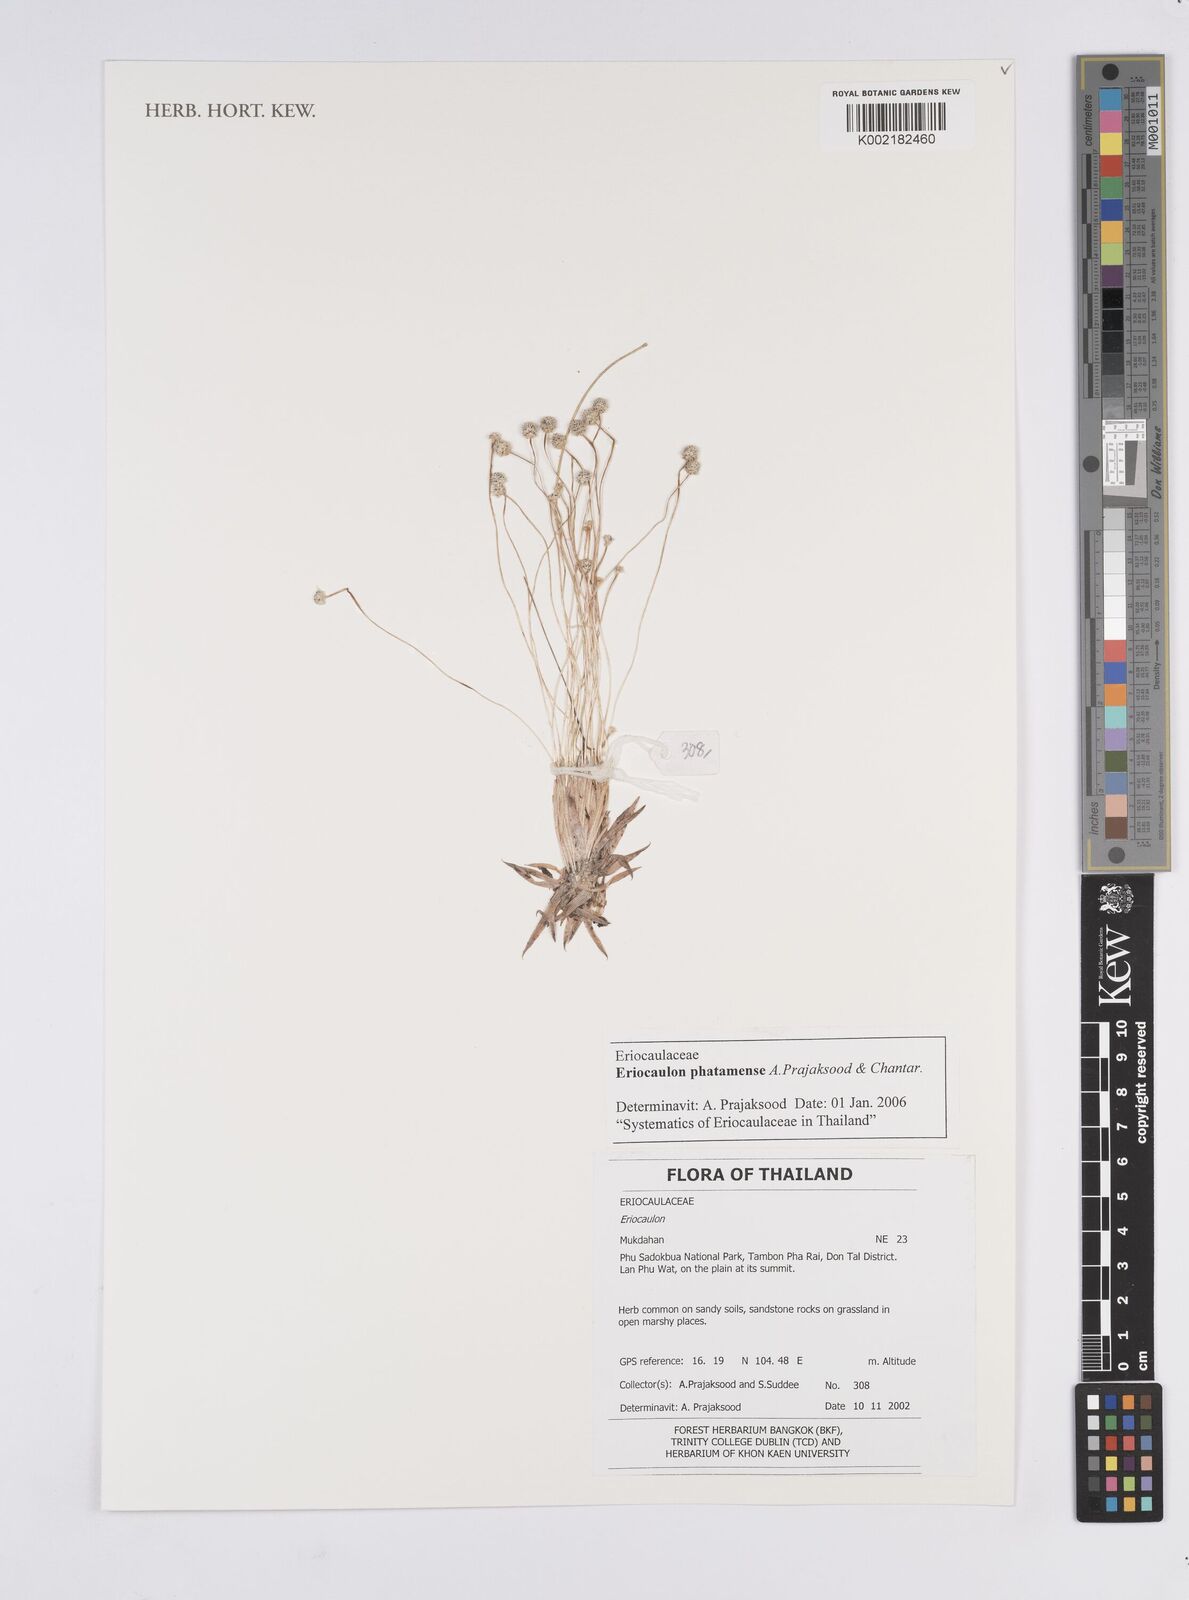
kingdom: Plantae
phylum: Tracheophyta
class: Liliopsida
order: Poales
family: Eriocaulaceae
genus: Eriocaulon
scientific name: Eriocaulon phatamense
